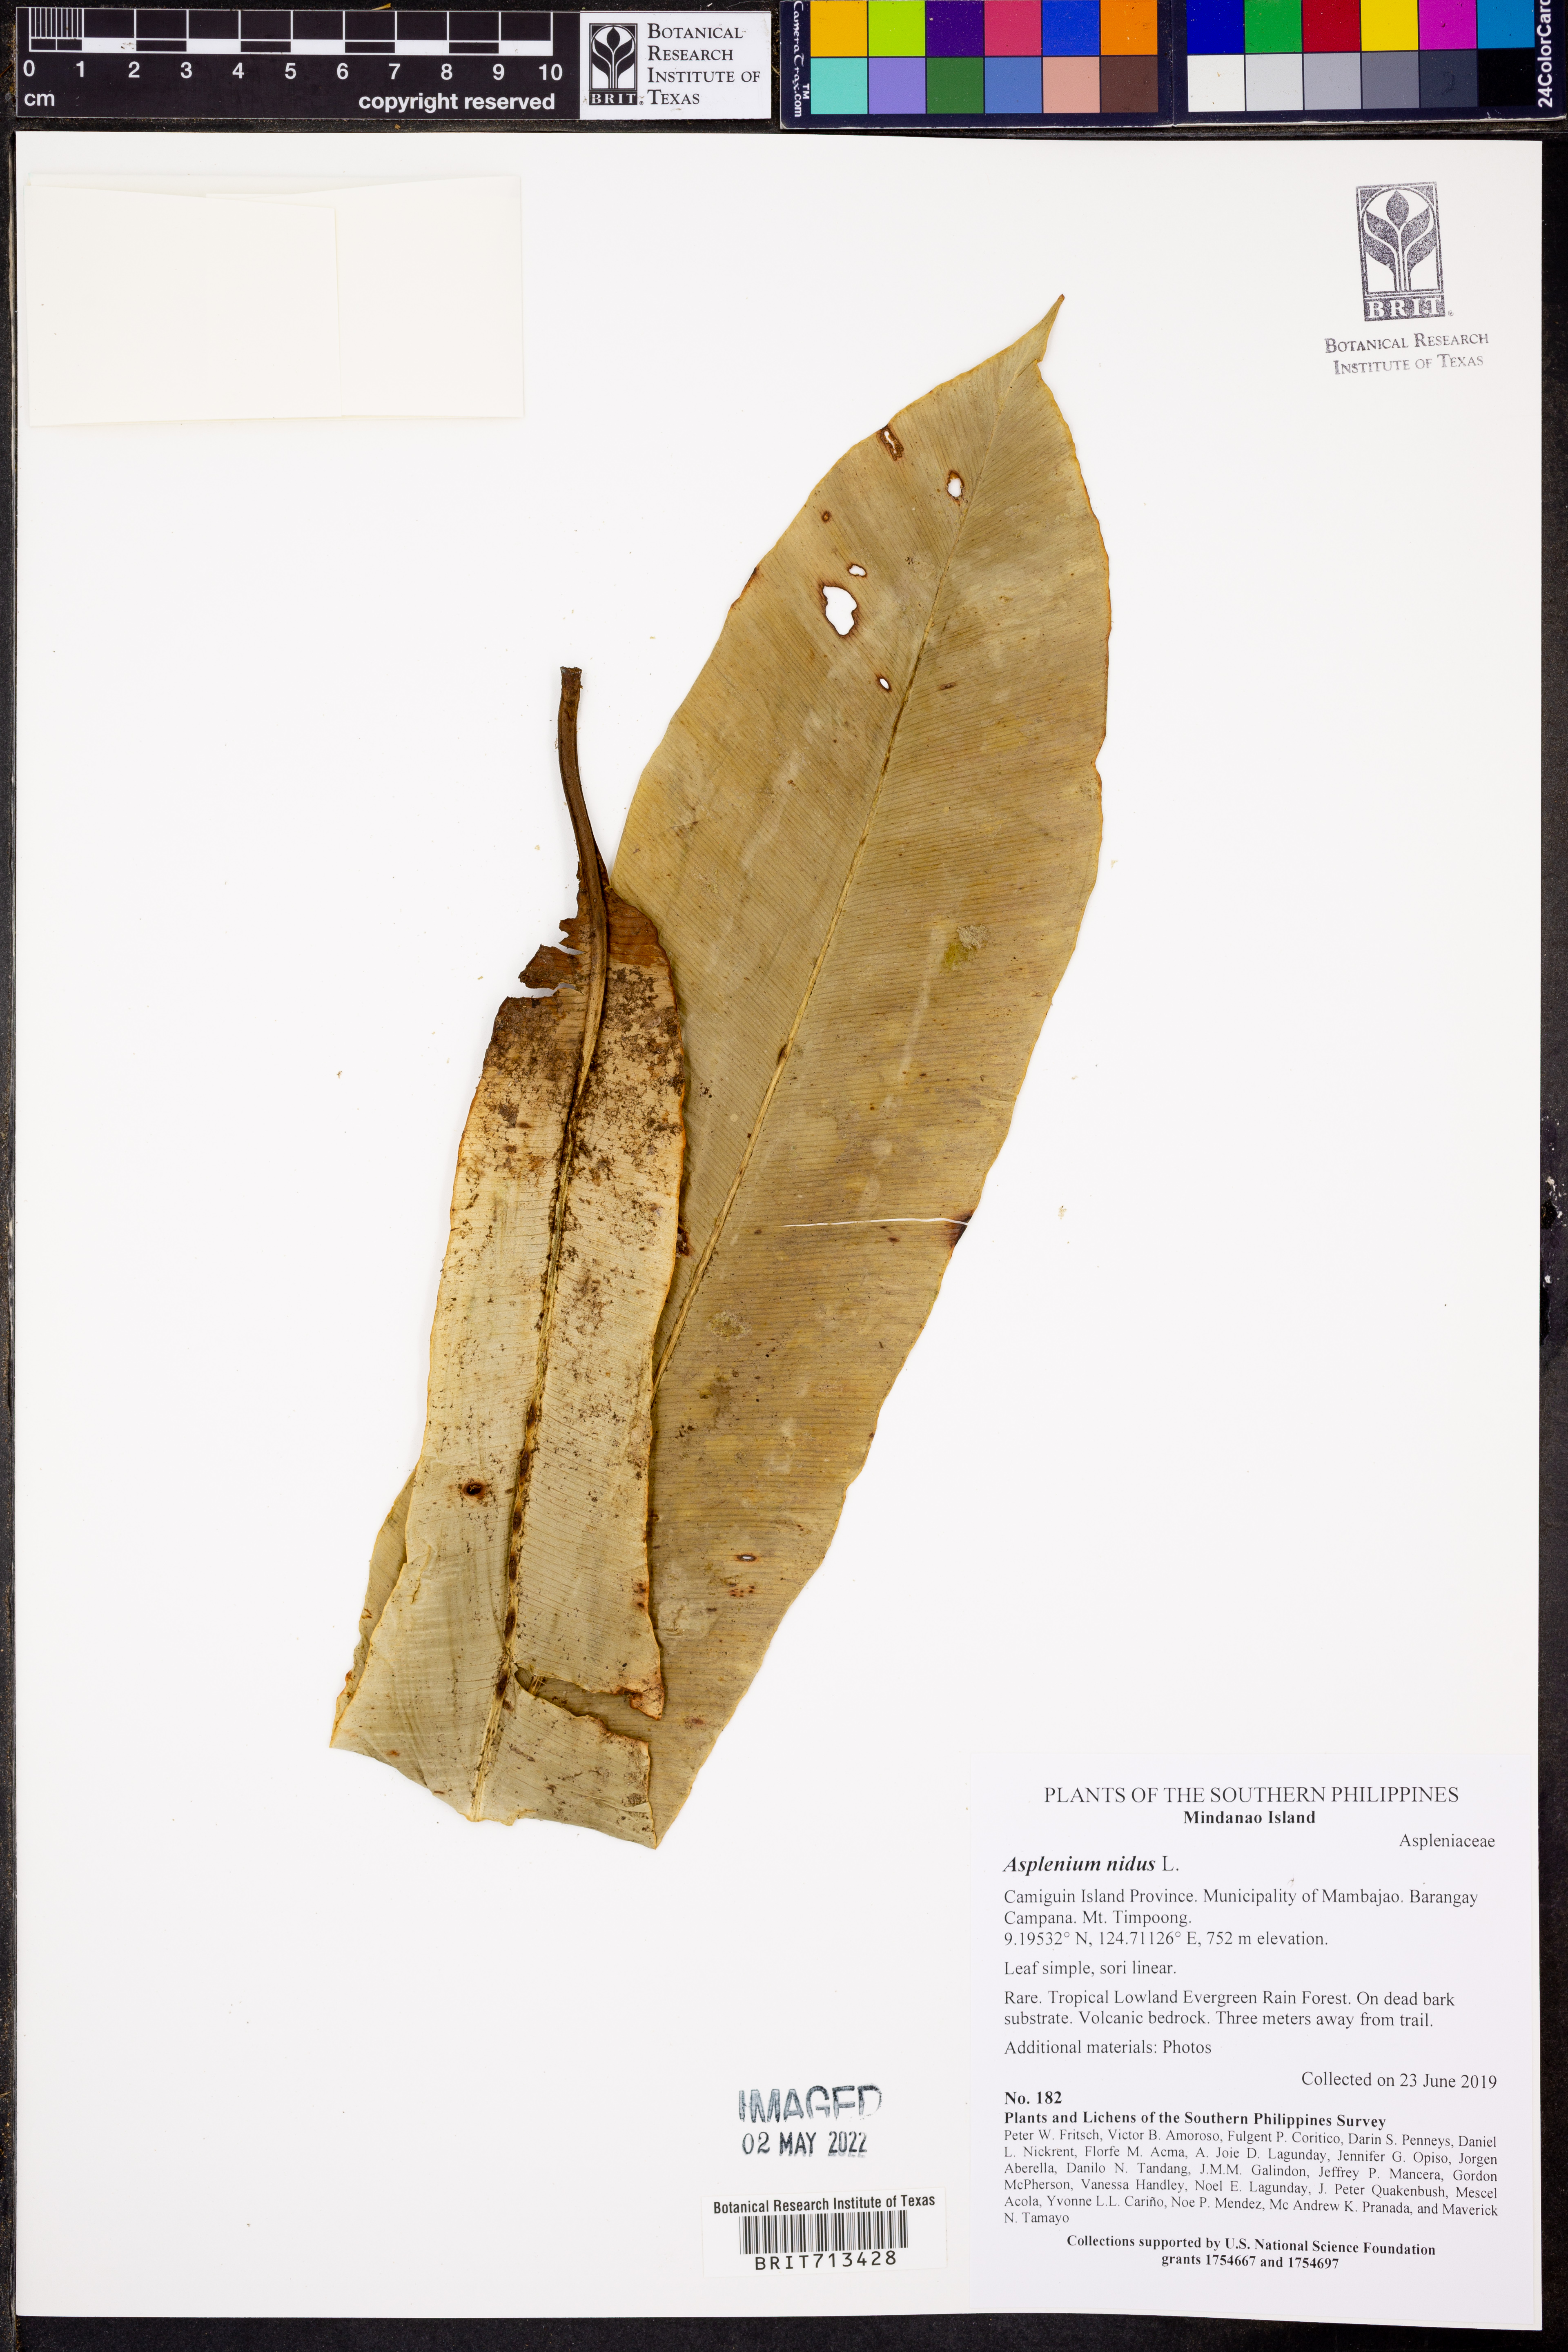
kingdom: Plantae
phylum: Tracheophyta
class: Polypodiopsida
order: Polypodiales
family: Aspleniaceae
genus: Asplenium
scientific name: Asplenium nidus
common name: Bird's-nest fern
